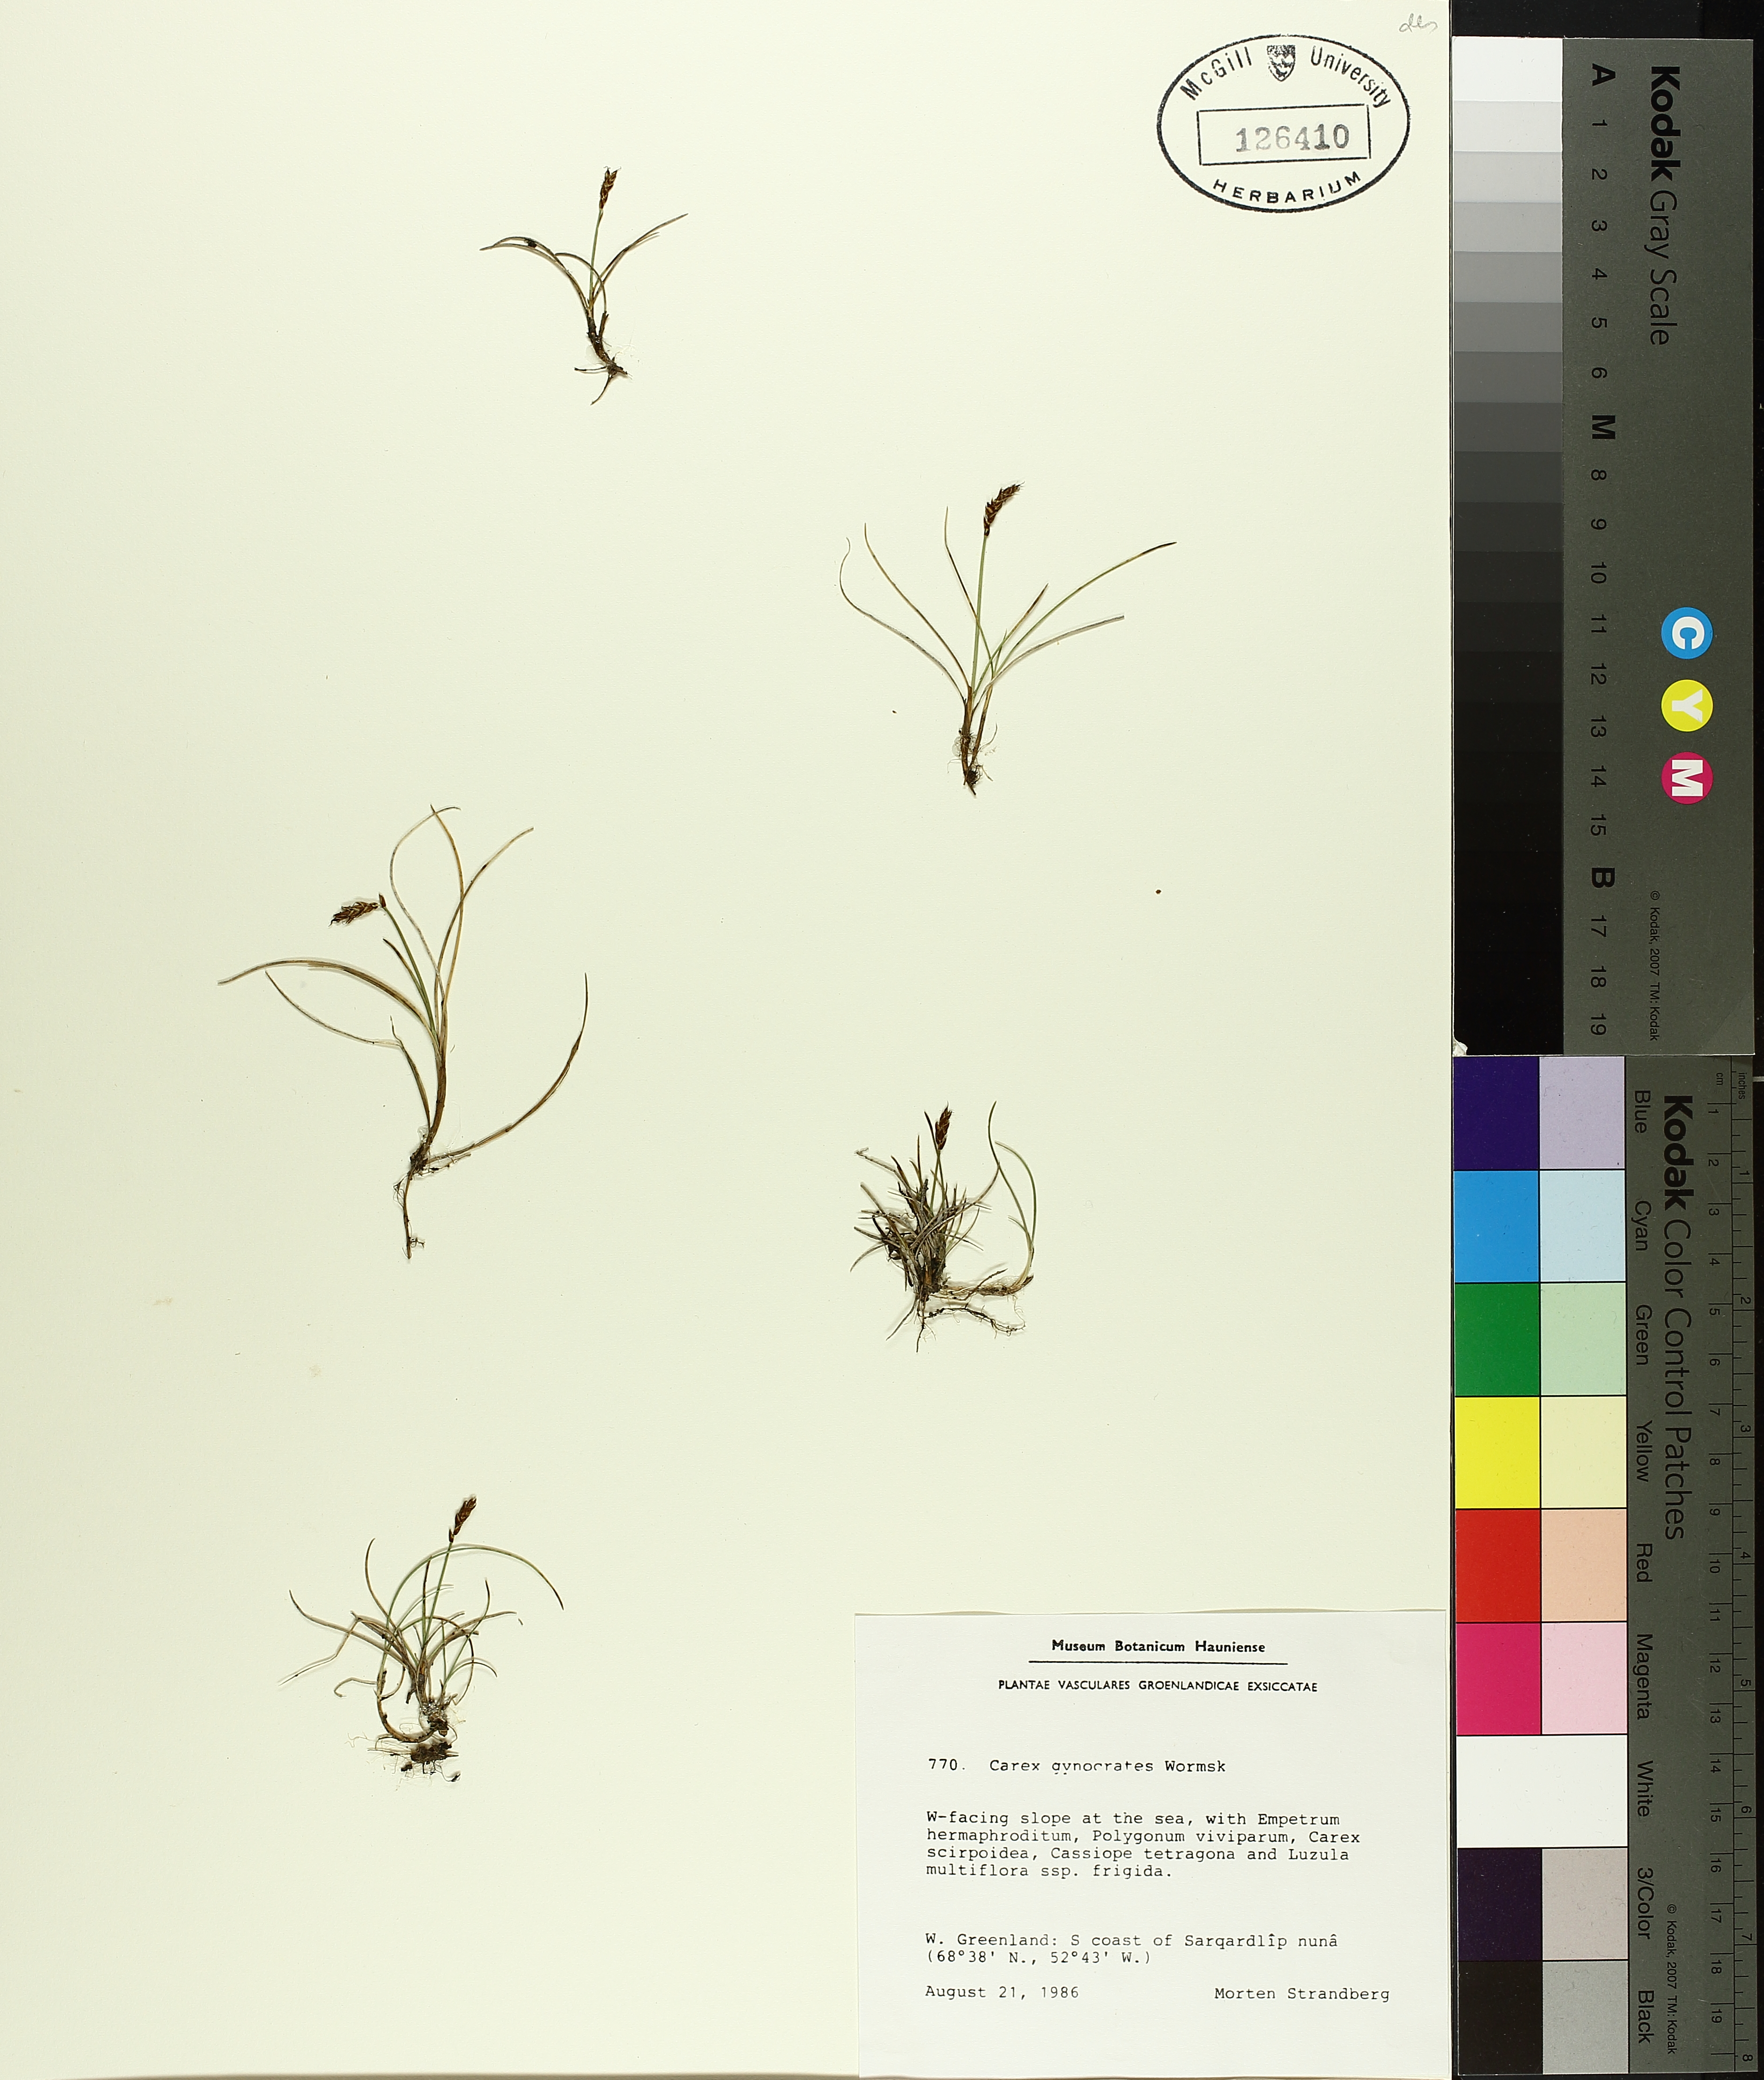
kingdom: Plantae
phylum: Tracheophyta
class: Liliopsida
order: Poales
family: Cyperaceae
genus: Carex
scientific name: Carex gynocrates
